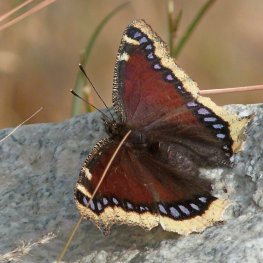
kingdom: Animalia
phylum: Arthropoda
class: Insecta
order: Lepidoptera
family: Nymphalidae
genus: Nymphalis
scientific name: Nymphalis antiopa
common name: Mourning Cloak
